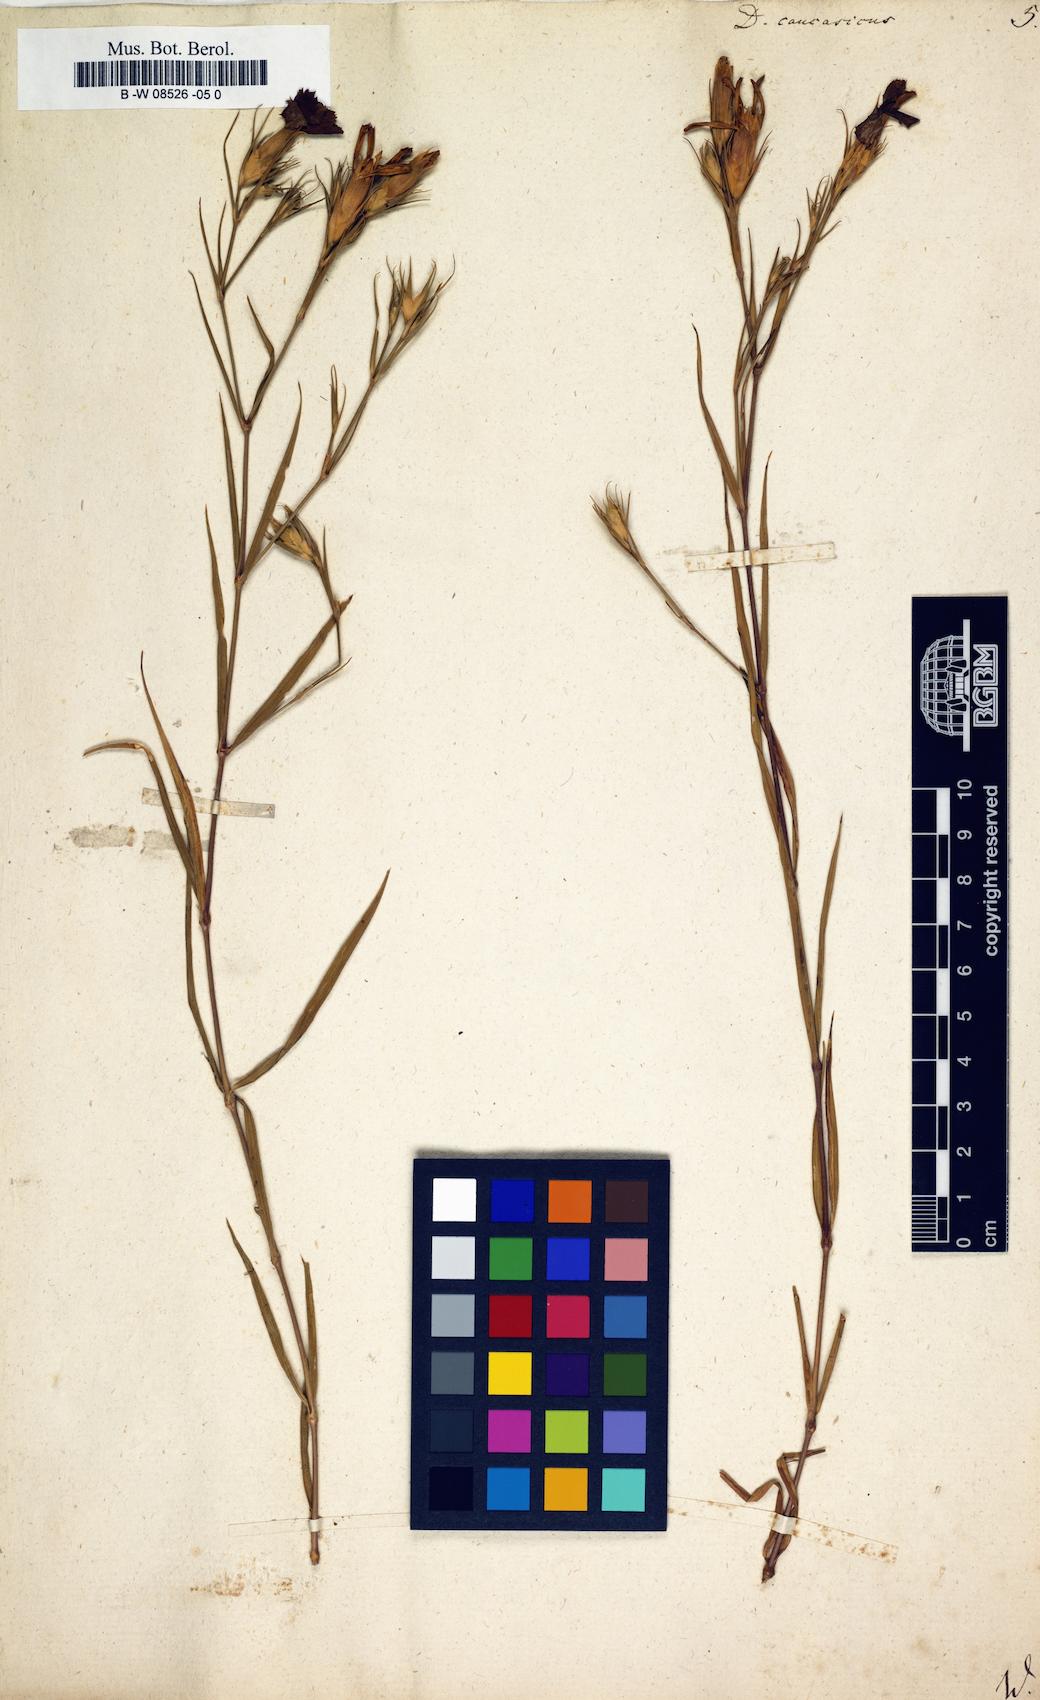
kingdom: Plantae
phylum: Tracheophyta
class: Magnoliopsida
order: Caryophyllales
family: Caryophyllaceae
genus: Dianthus
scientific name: Dianthus bicolor
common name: Bicolour pink
